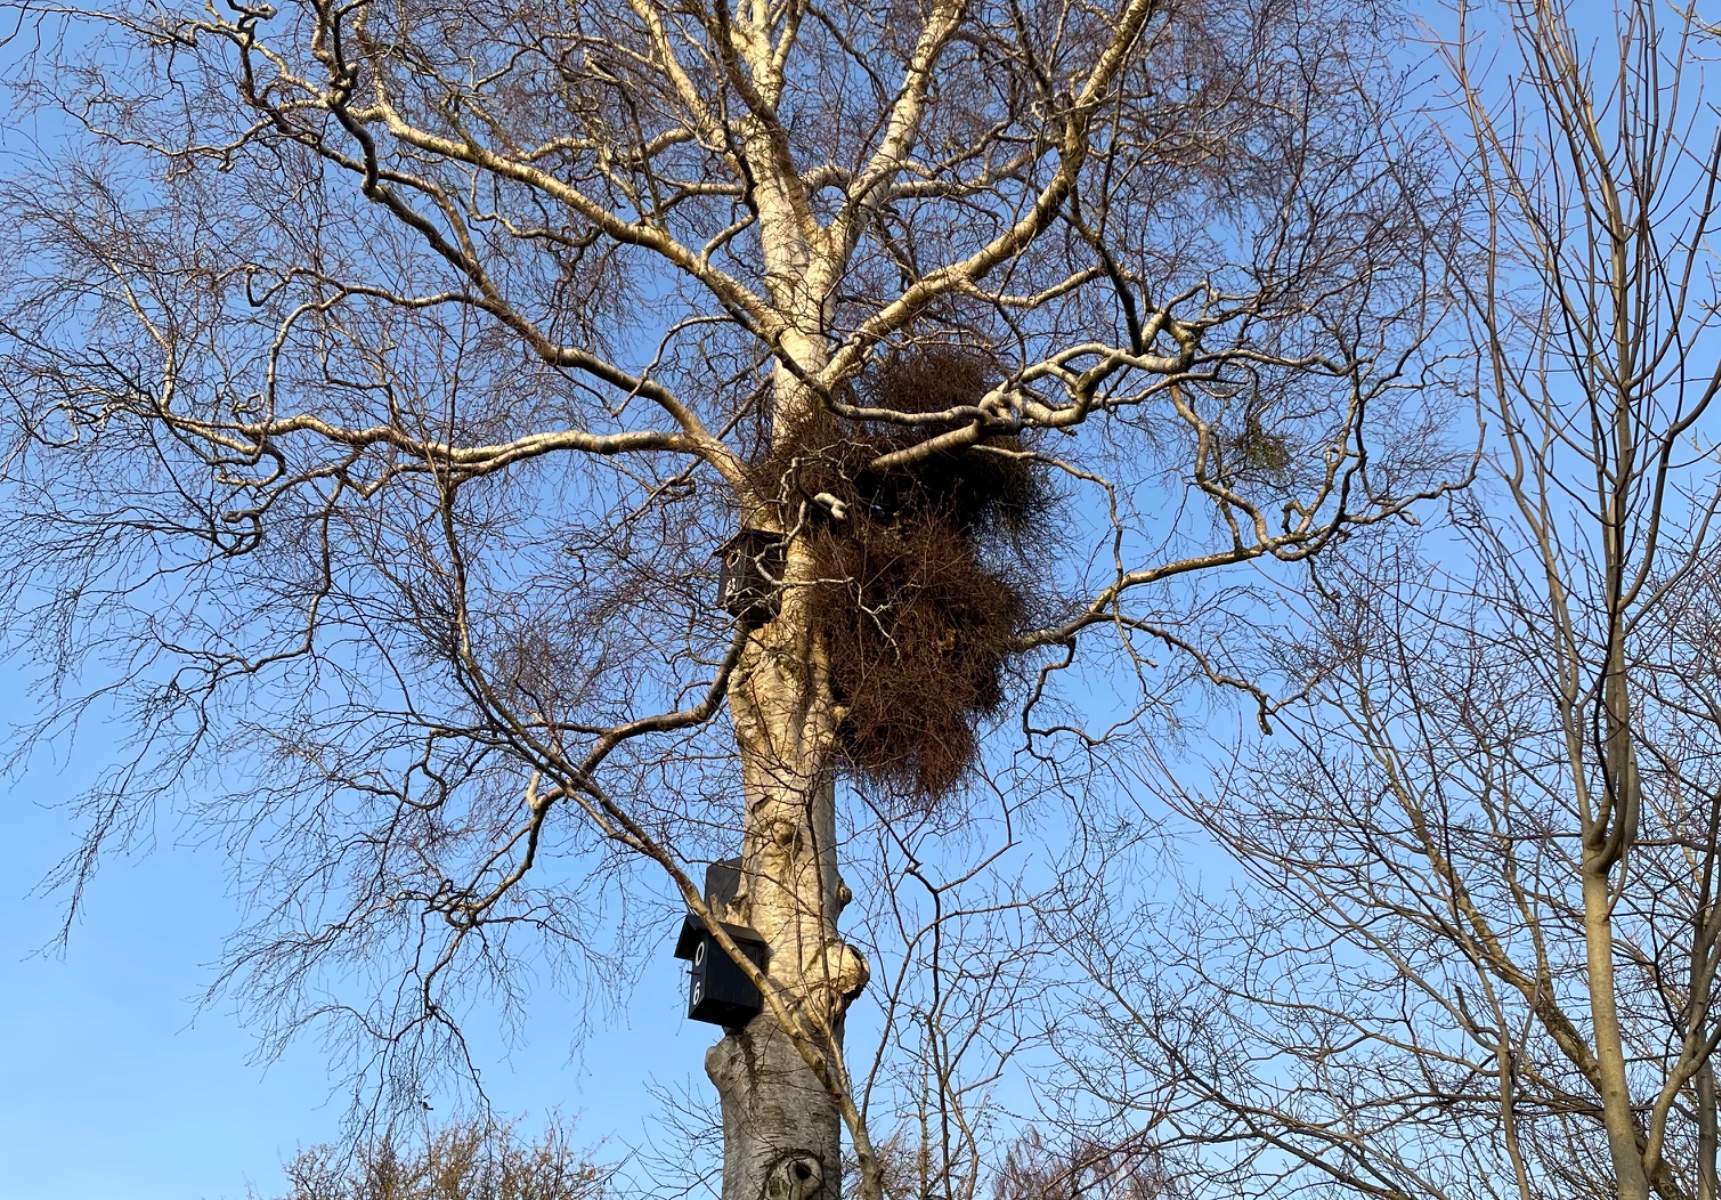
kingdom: Fungi
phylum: Ascomycota
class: Taphrinomycetes
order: Taphrinales
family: Taphrinaceae
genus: Taphrina
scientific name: Taphrina betulina
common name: hekse-sækdug
